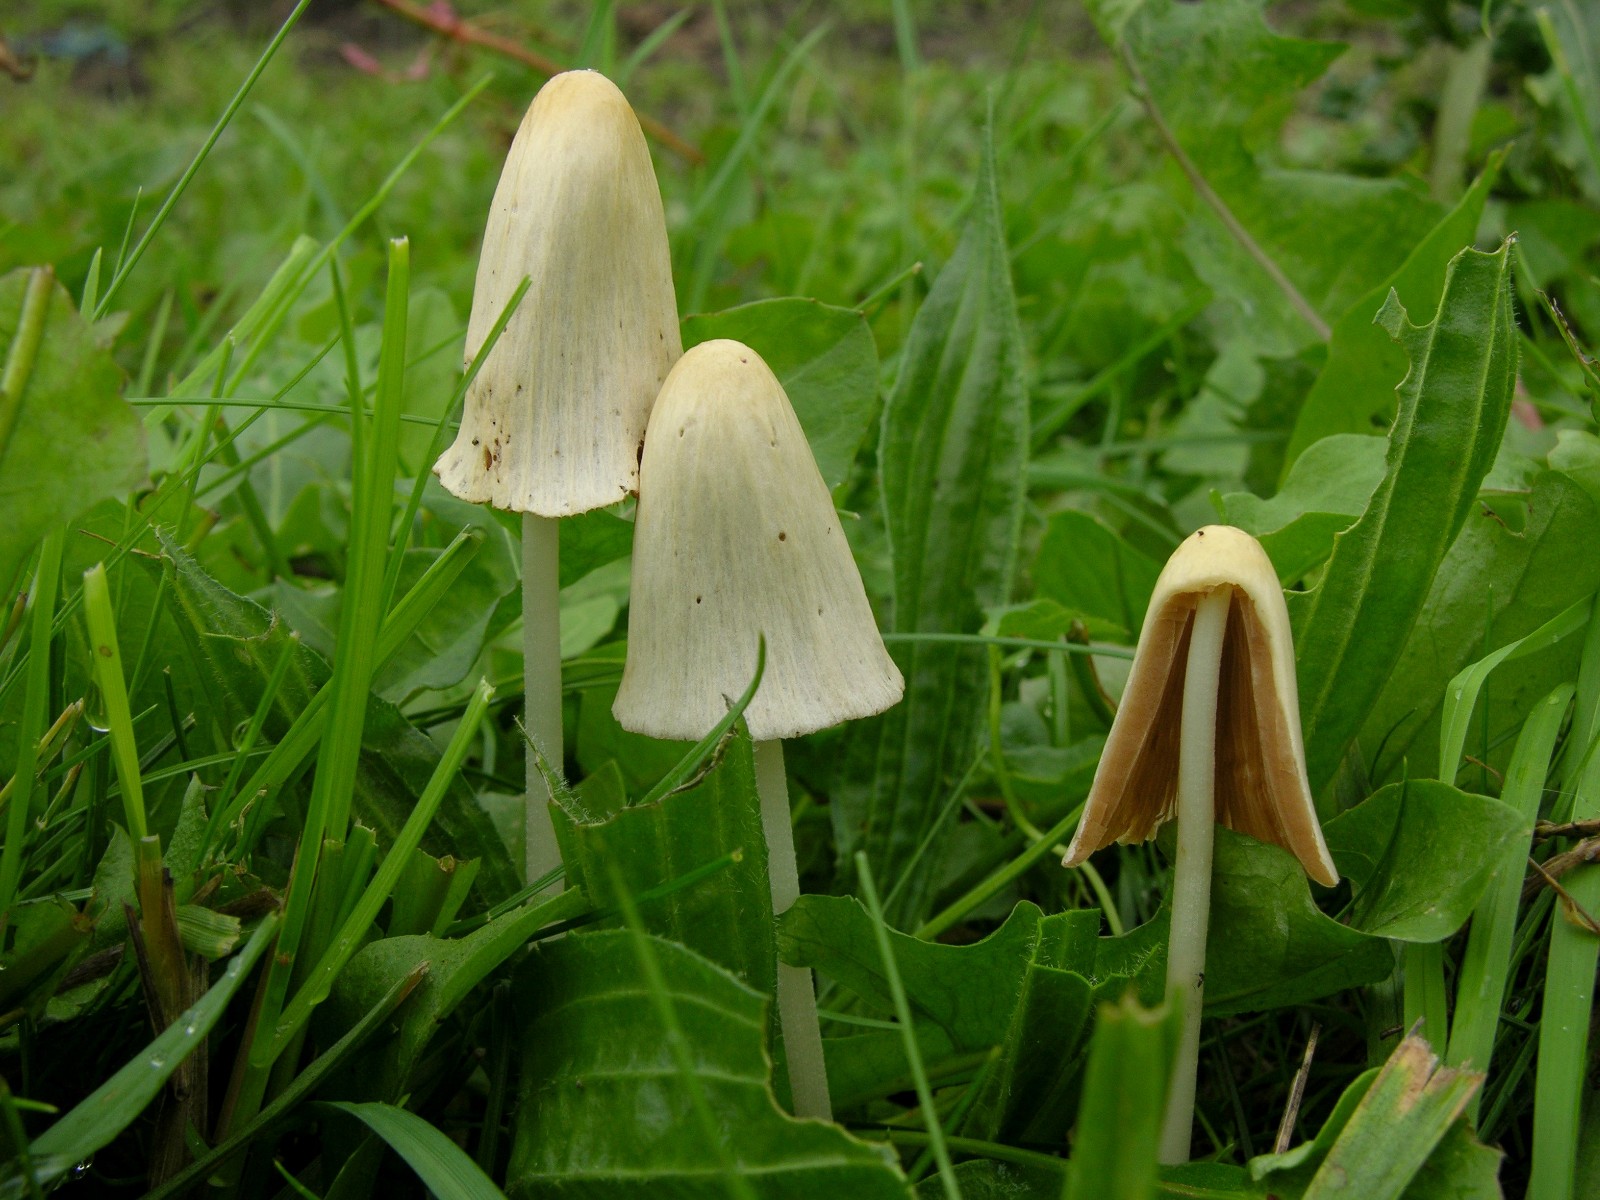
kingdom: Fungi
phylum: Basidiomycota
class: Agaricomycetes
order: Agaricales
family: Bolbitiaceae
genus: Conocybe
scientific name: Conocybe apala
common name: mælkehvid keglehat
